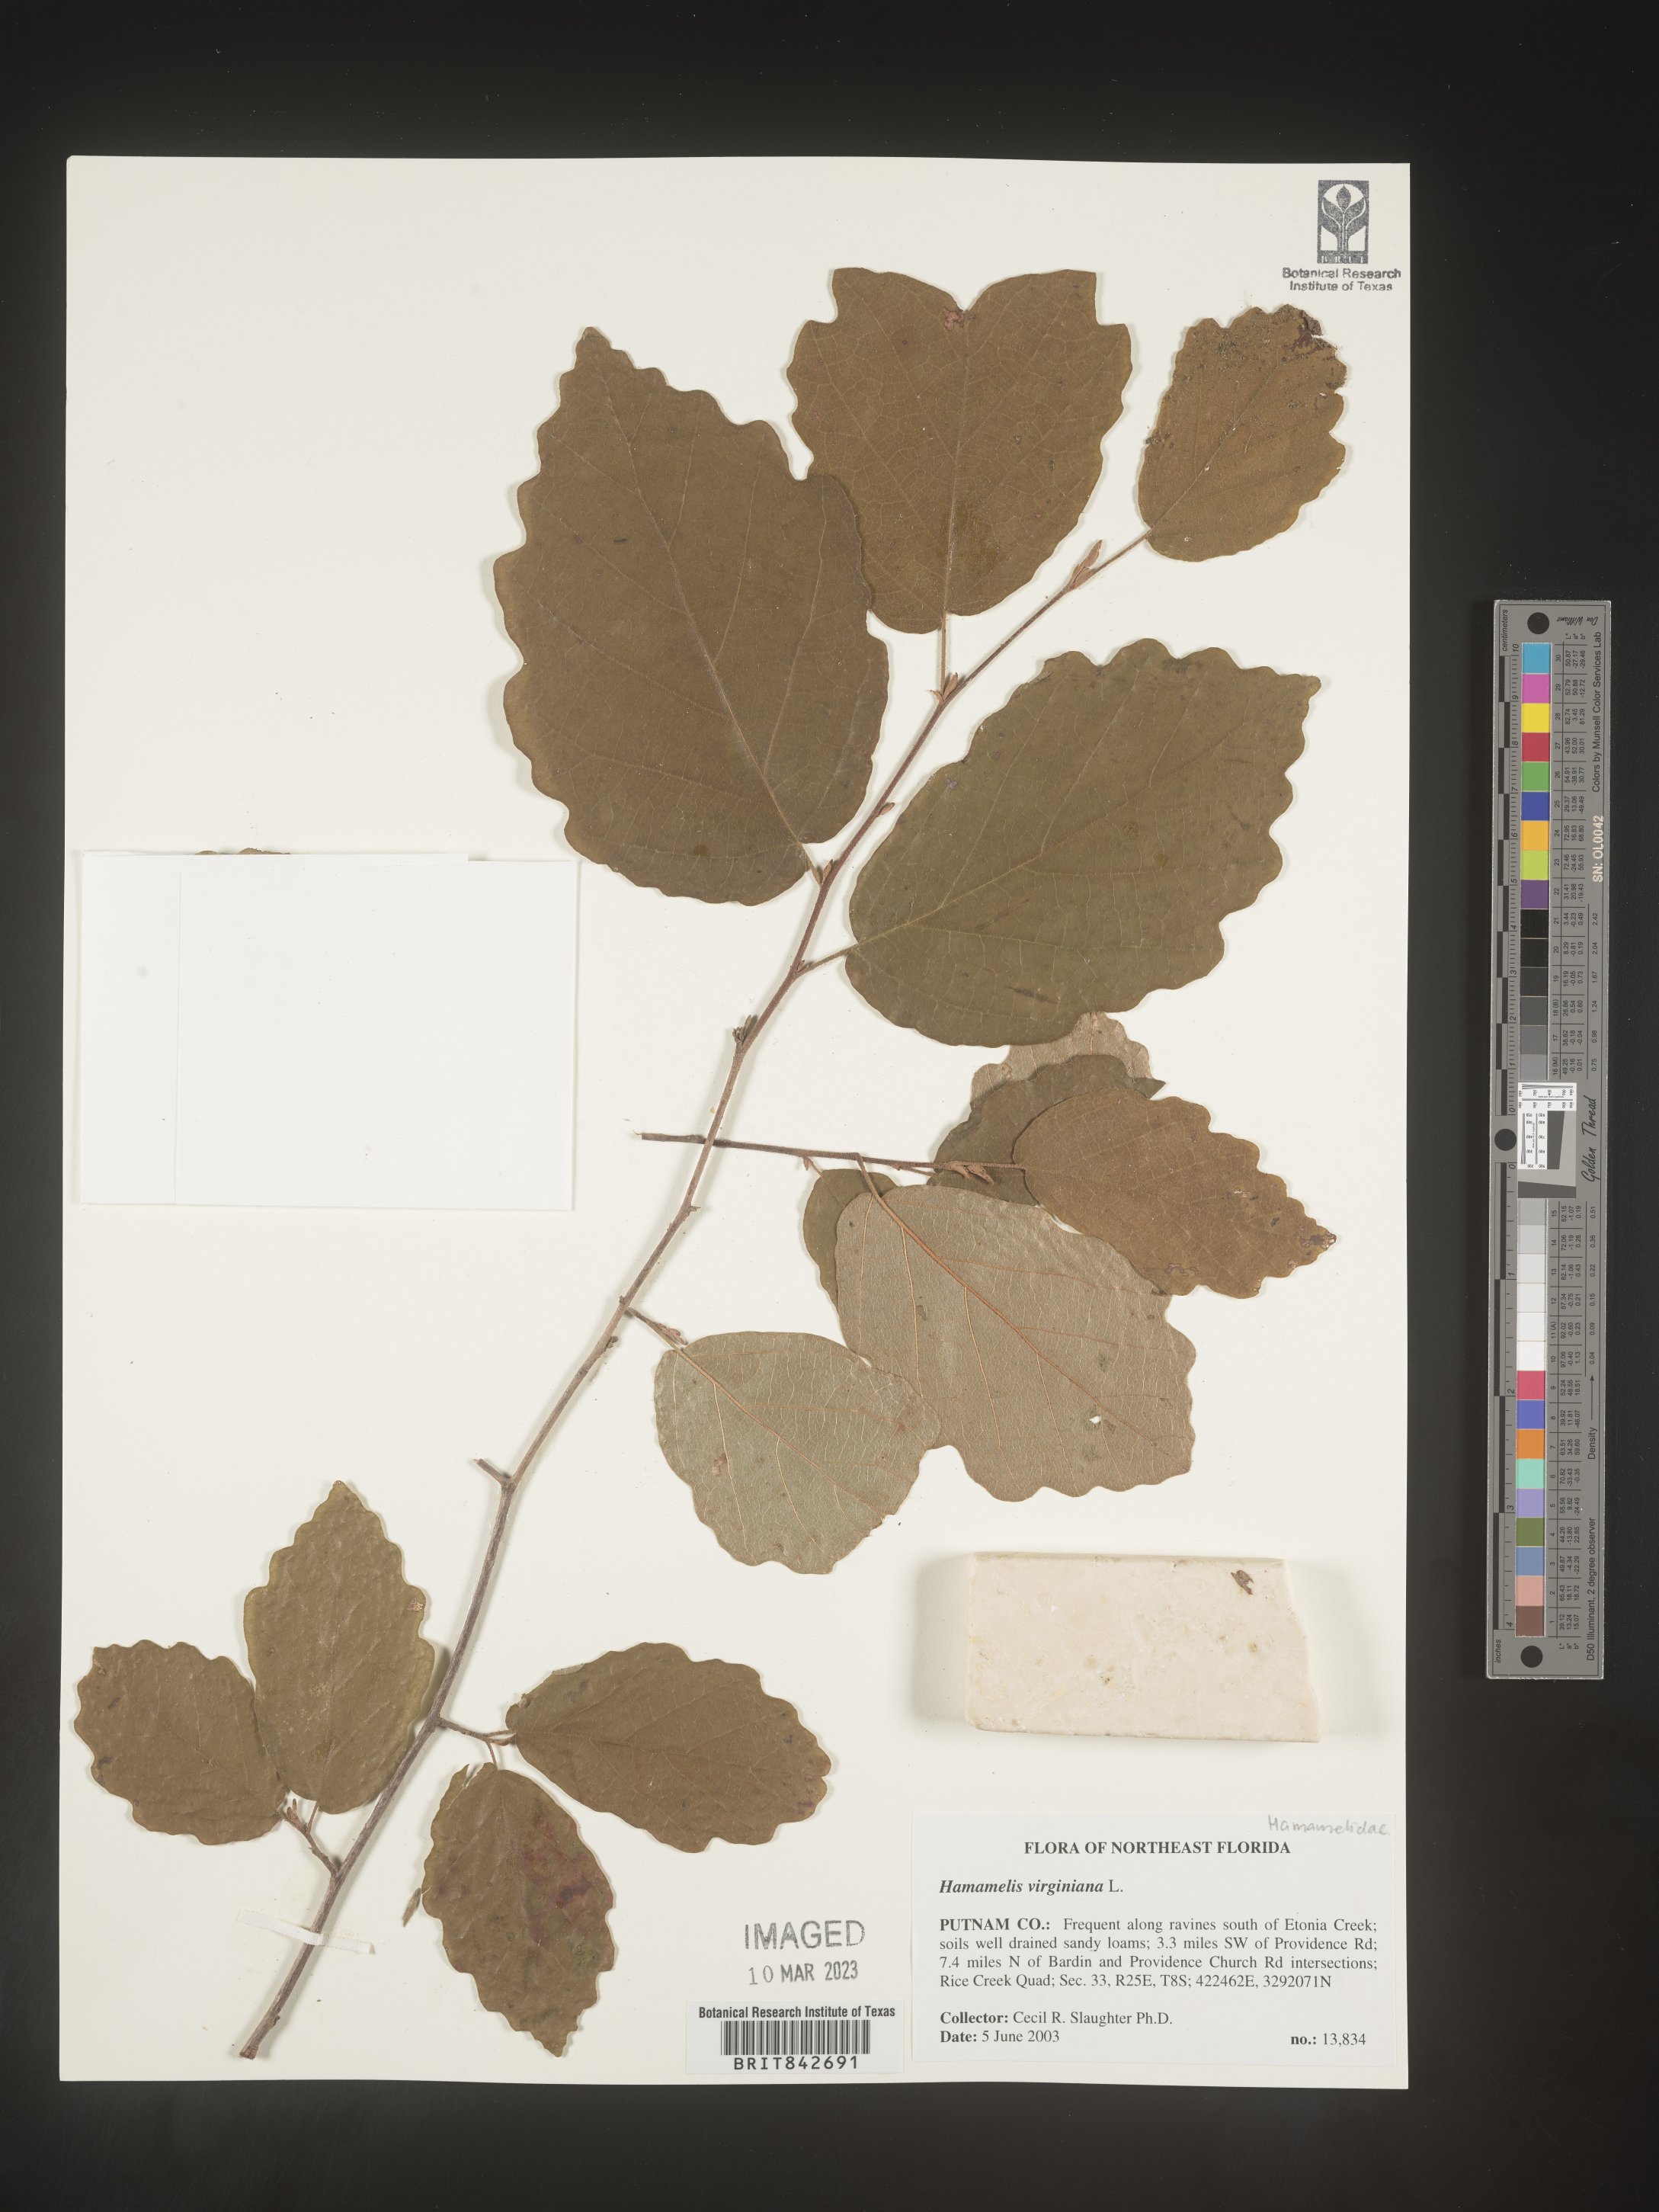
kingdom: Plantae
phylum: Tracheophyta
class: Magnoliopsida
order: Saxifragales
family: Hamamelidaceae
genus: Hamamelis
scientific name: Hamamelis virginiana
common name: Witch-hazel
